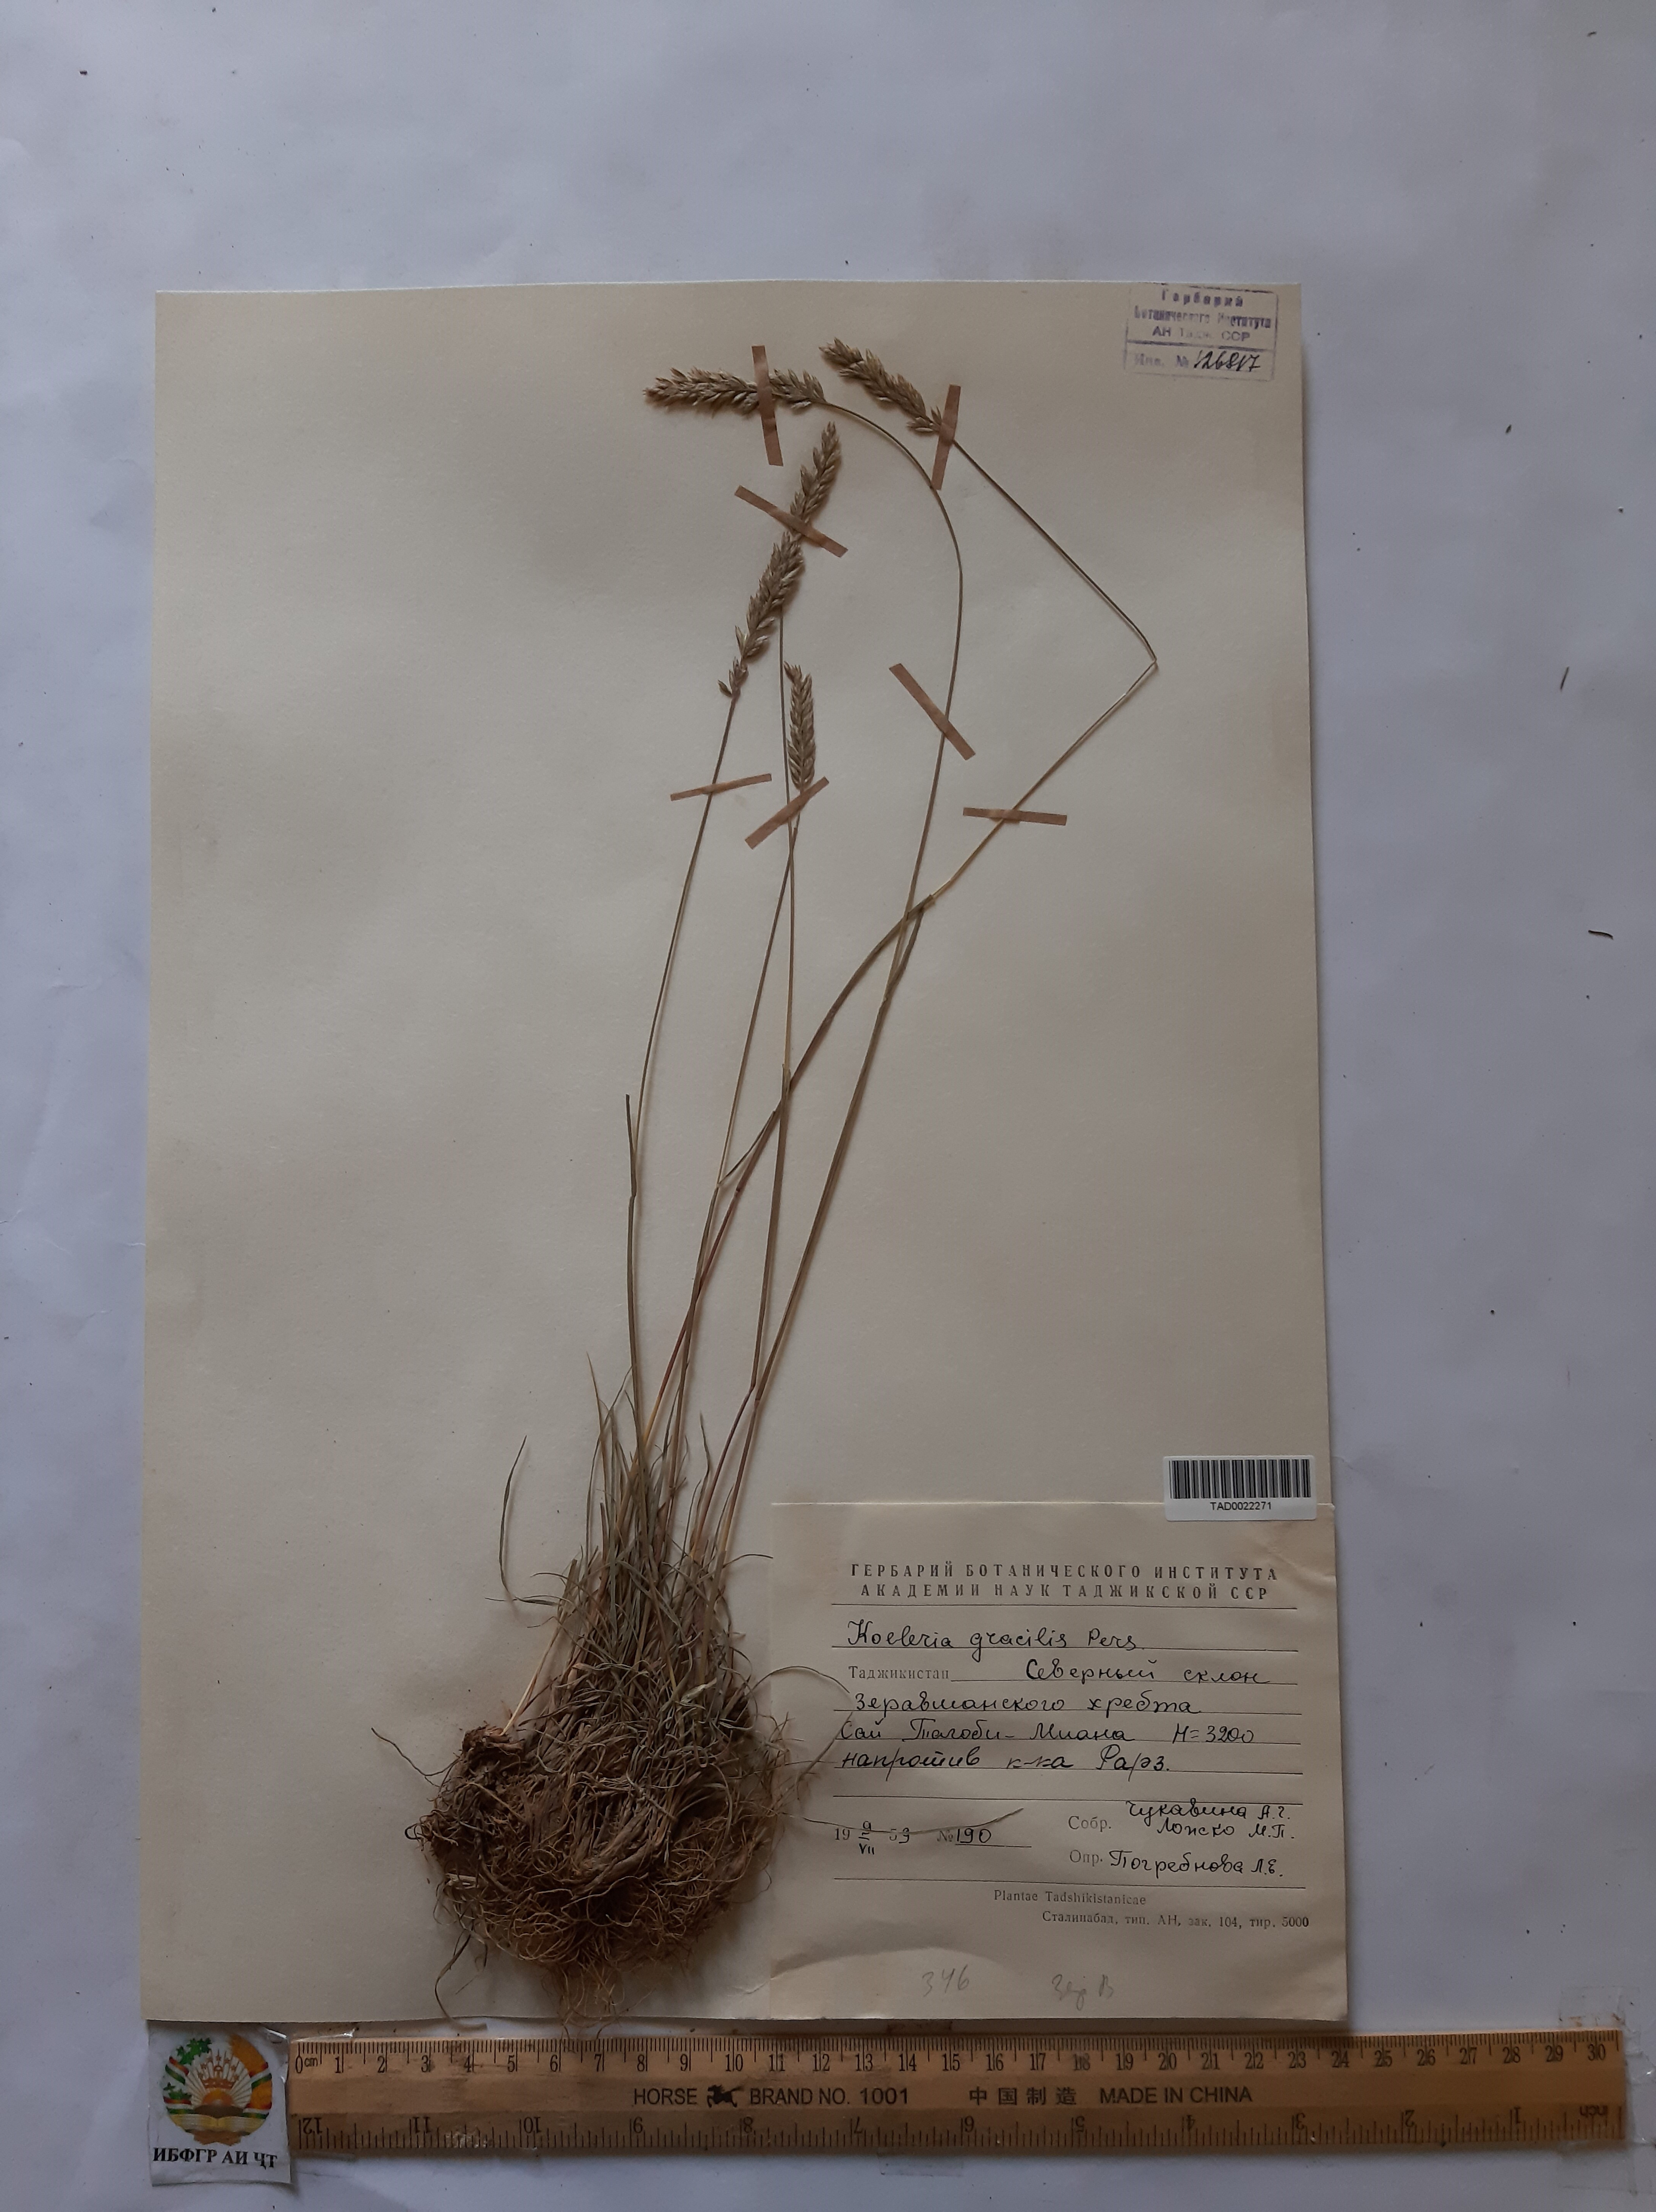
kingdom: Plantae
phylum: Tracheophyta
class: Liliopsida
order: Poales
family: Poaceae
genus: Koeleria
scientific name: Koeleria macrantha
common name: Crested hair-grass
